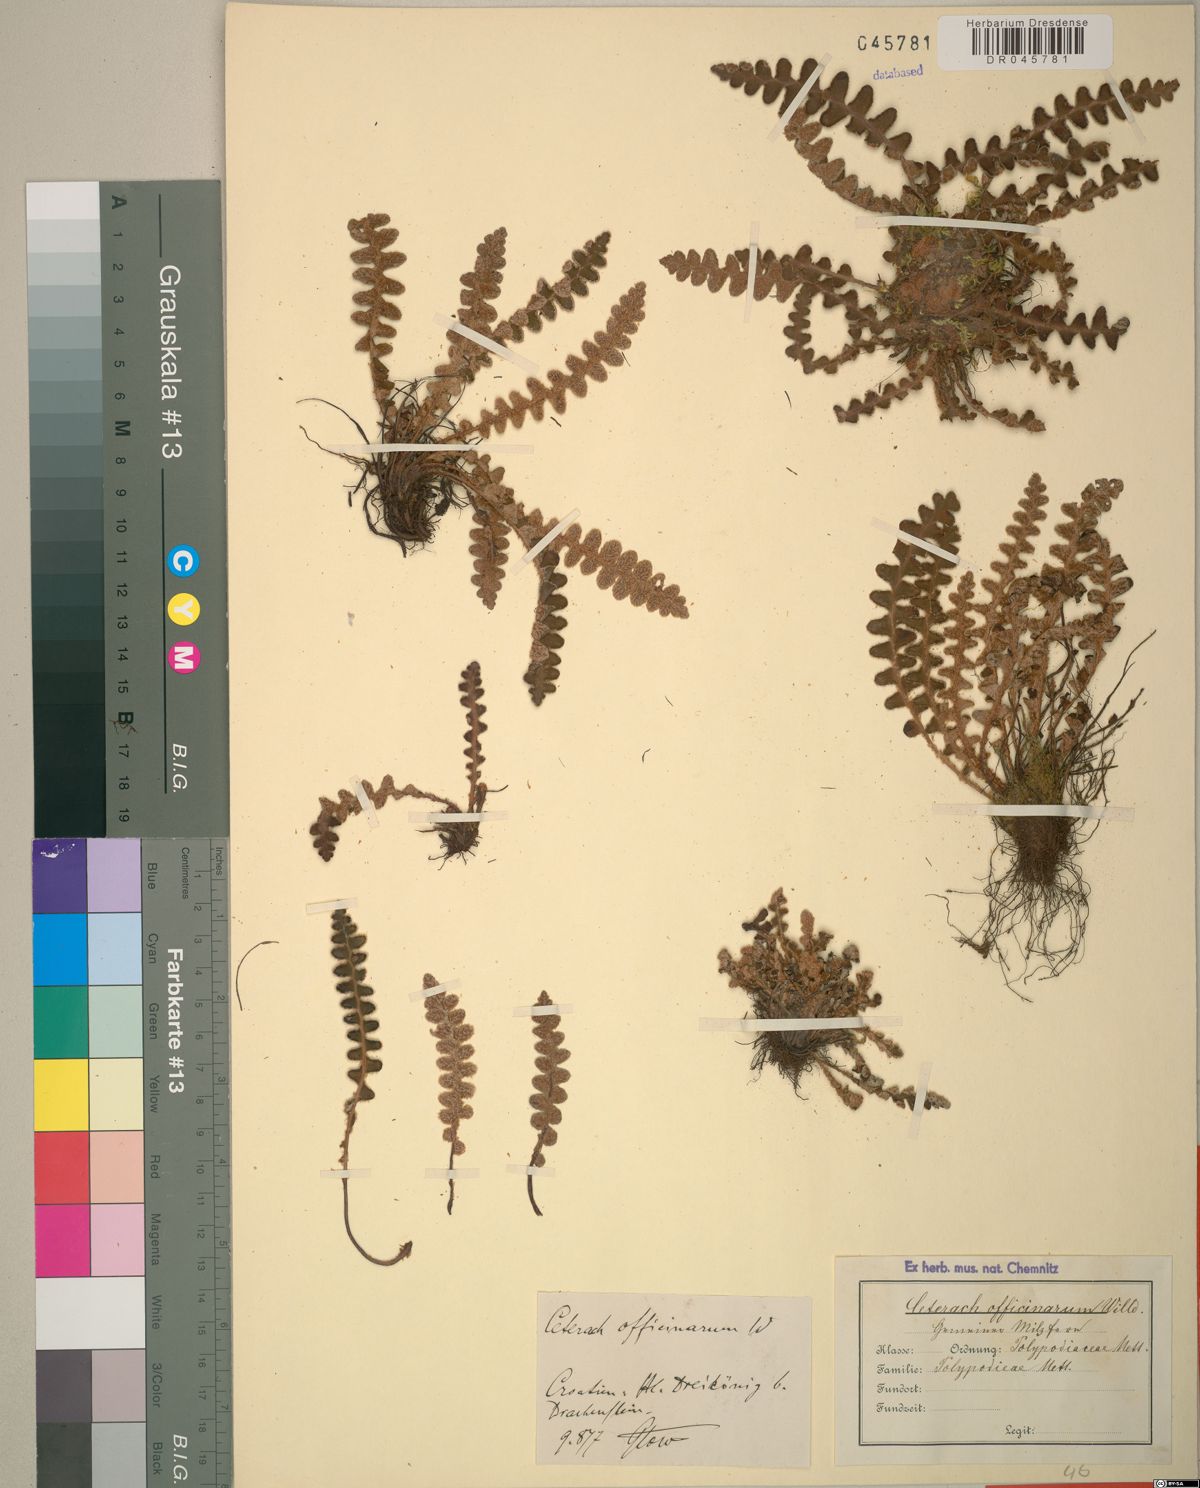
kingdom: Plantae
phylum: Tracheophyta
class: Polypodiopsida
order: Polypodiales
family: Aspleniaceae
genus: Asplenium
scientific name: Asplenium ceterach
